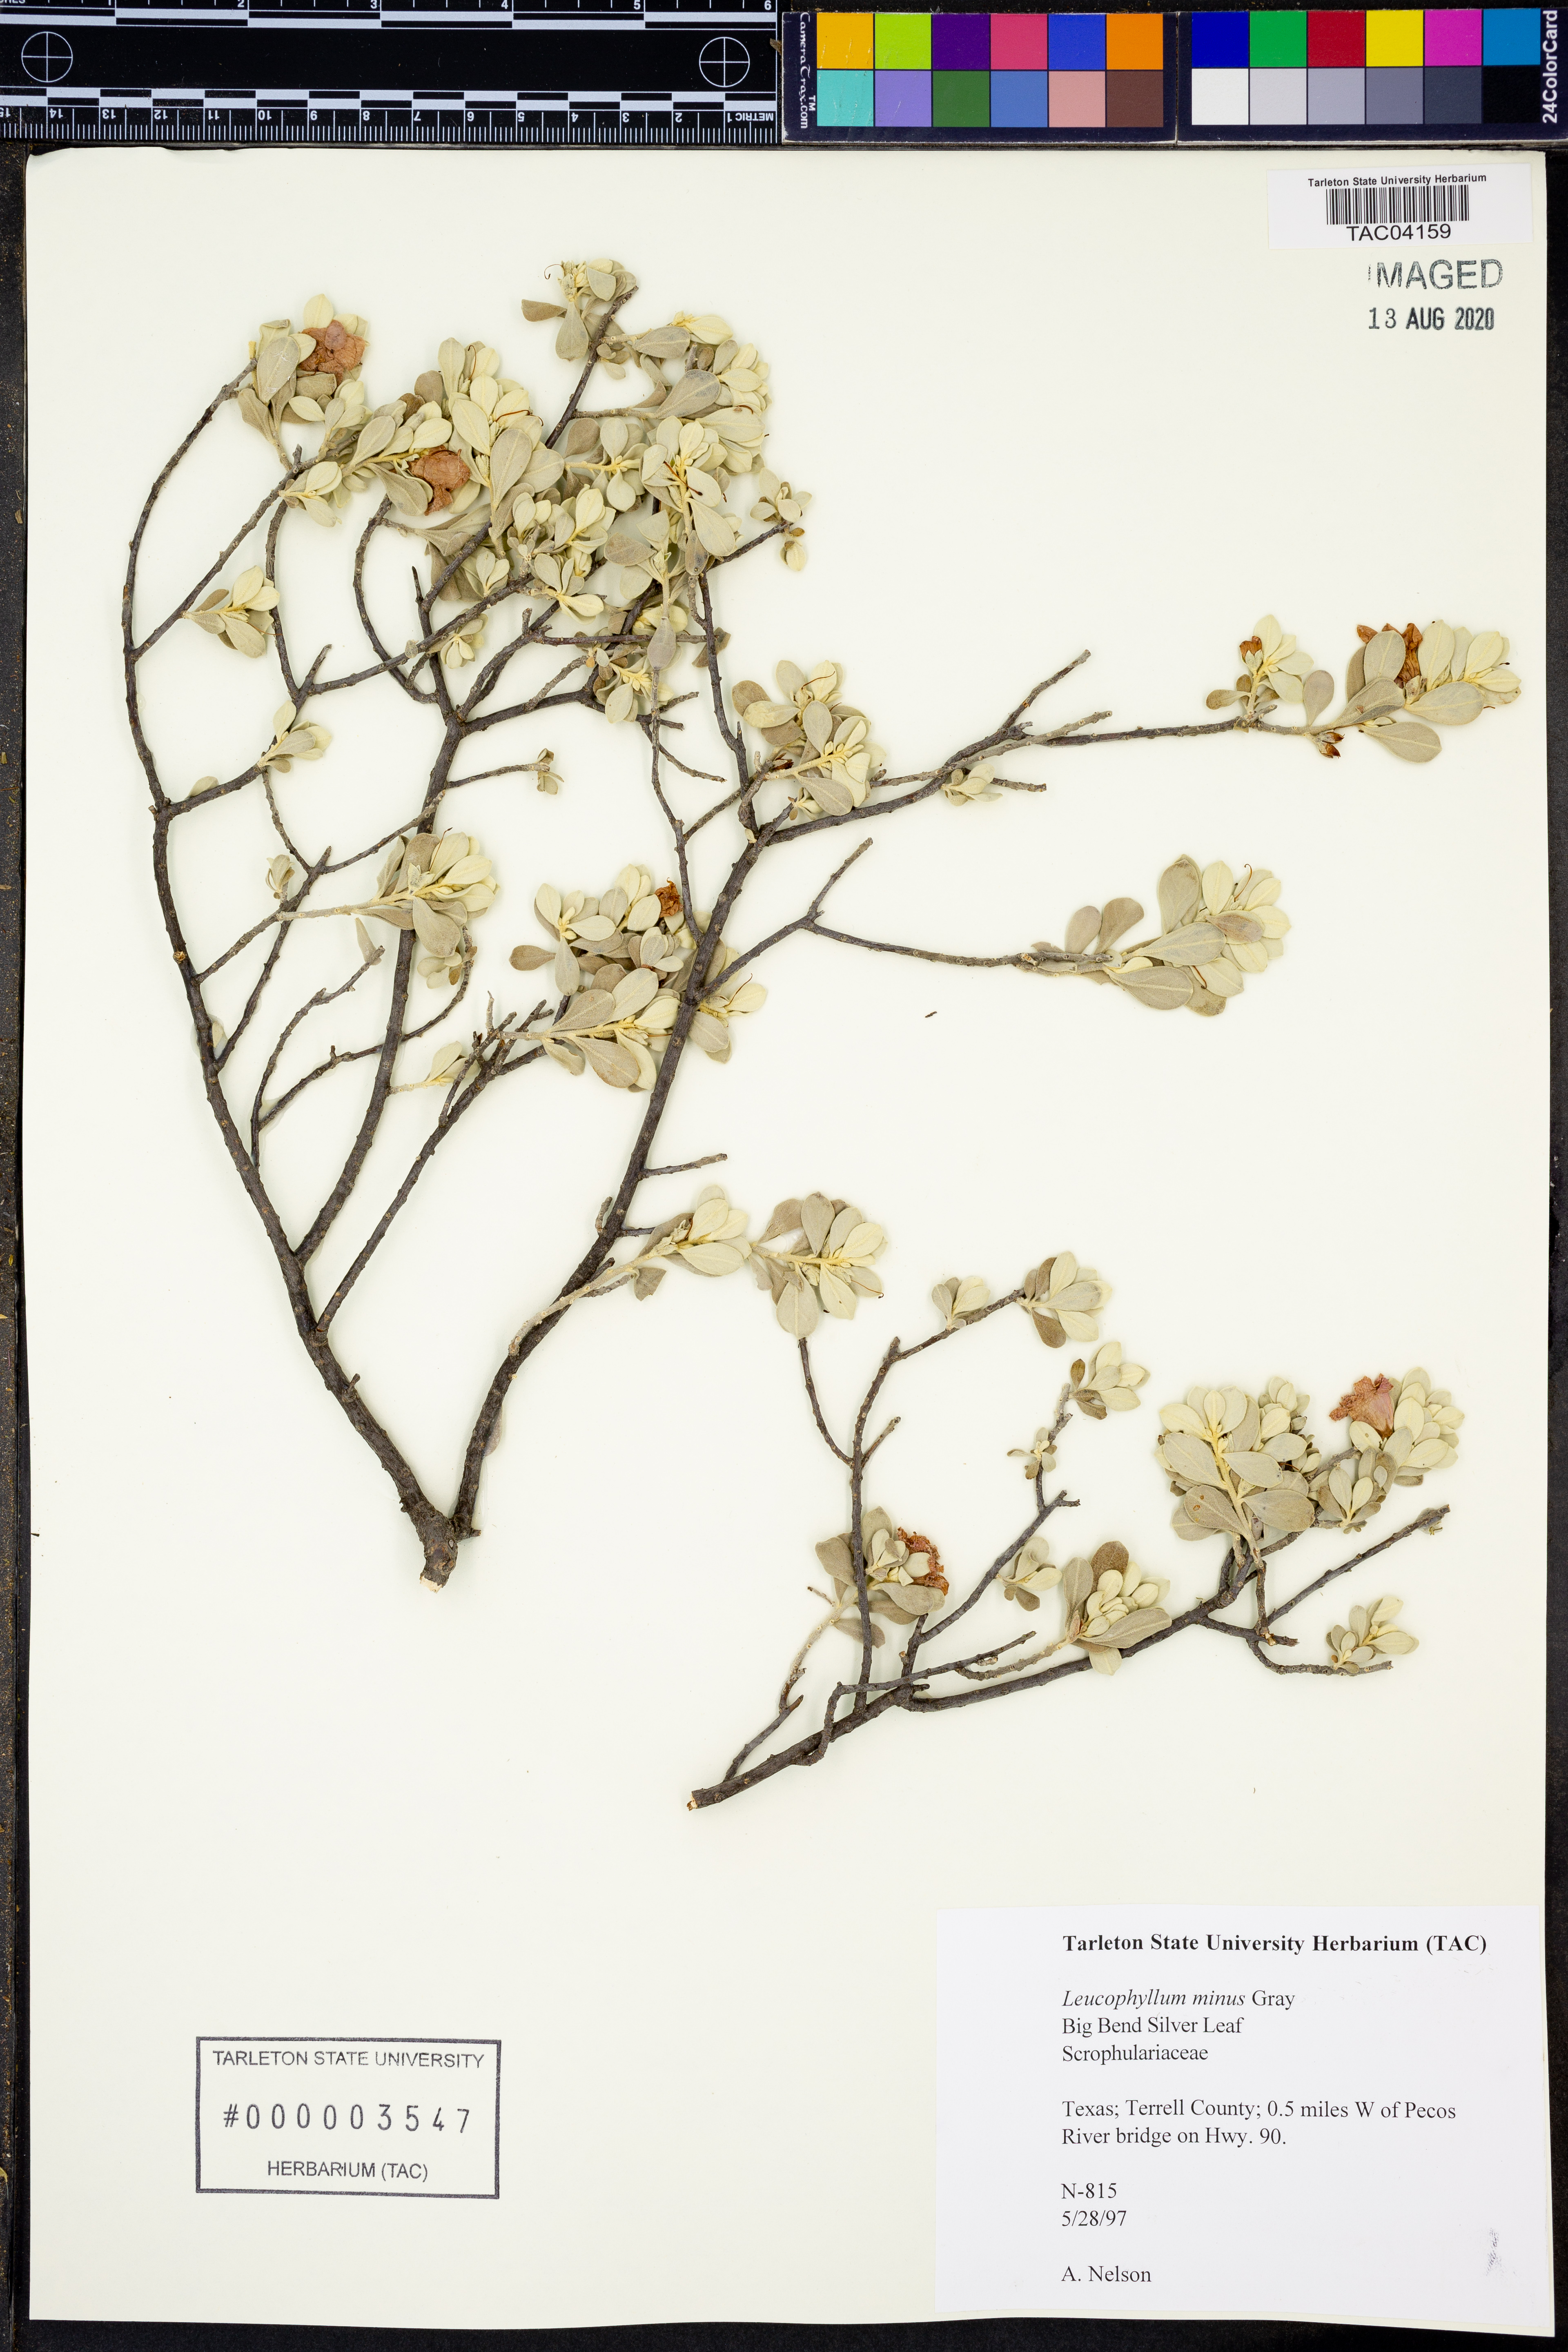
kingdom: Plantae
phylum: Tracheophyta
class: Magnoliopsida
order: Lamiales
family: Scrophulariaceae
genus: Leucophyllum
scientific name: Leucophyllum minus
